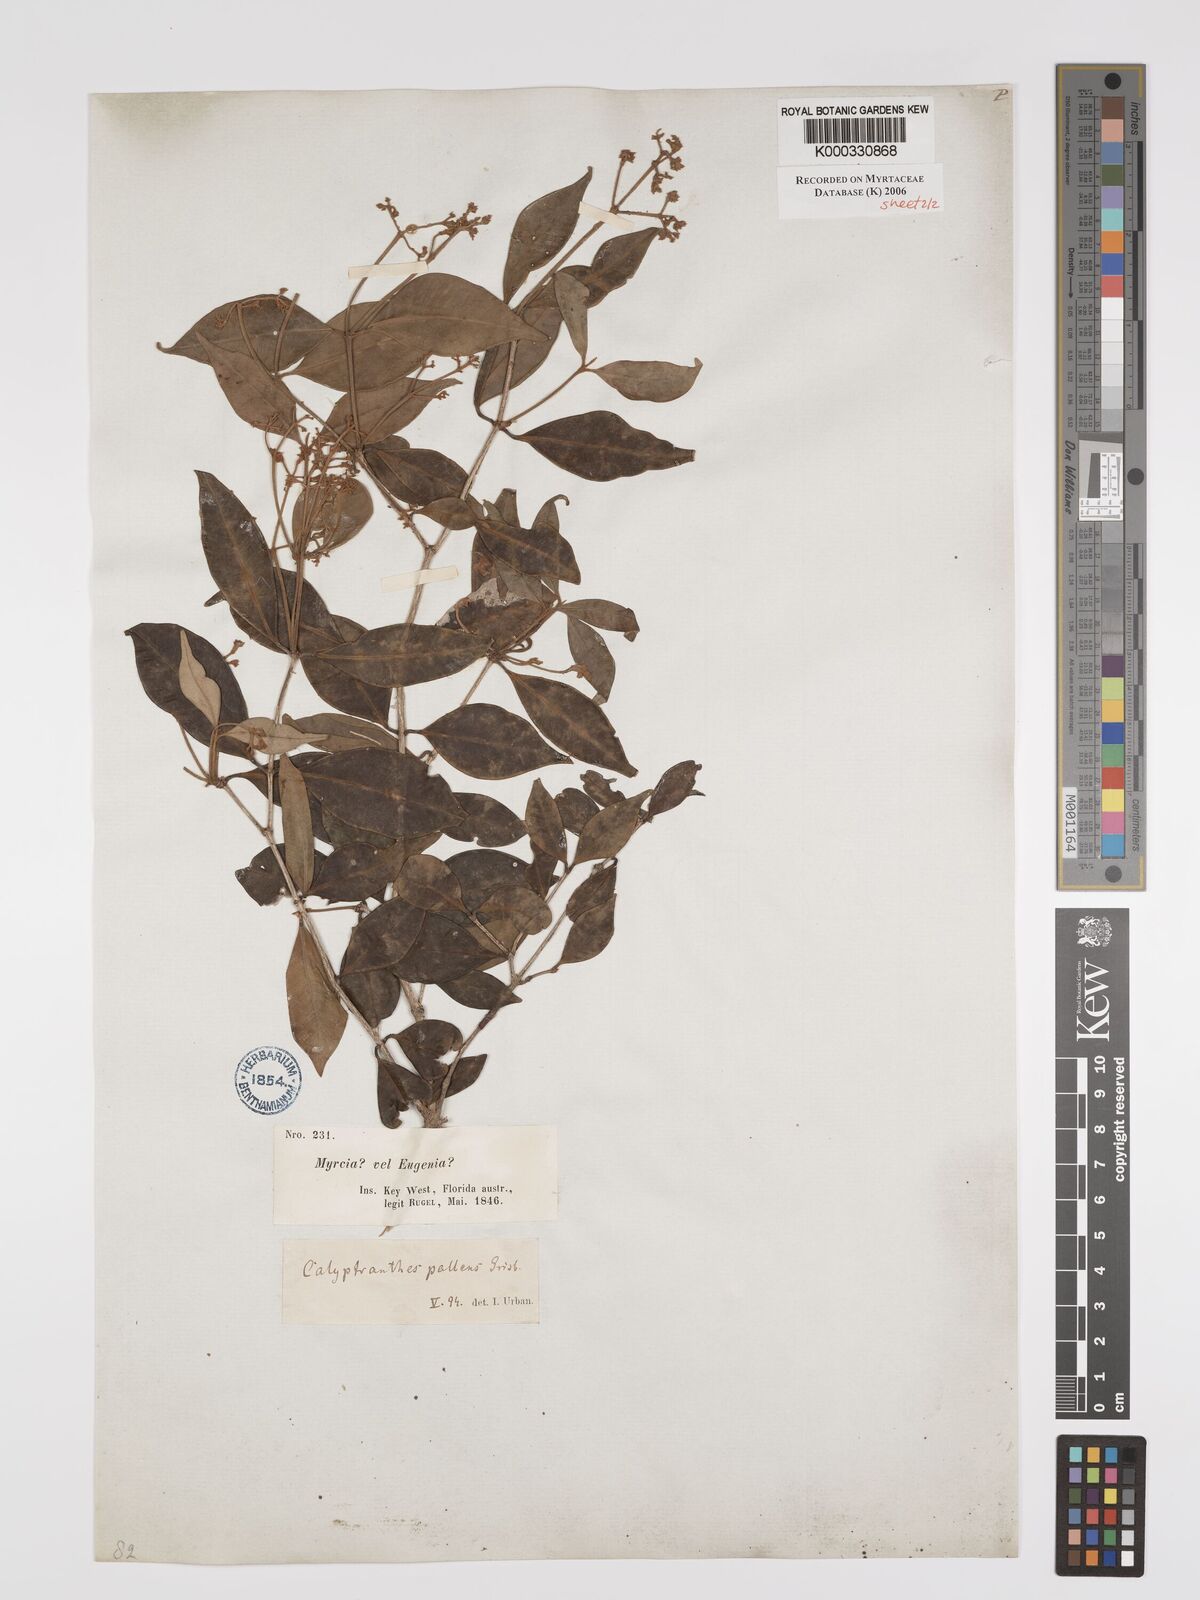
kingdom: Plantae
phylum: Tracheophyta
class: Magnoliopsida
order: Myrtales
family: Myrtaceae
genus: Myrcia
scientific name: Myrcia neopallens
